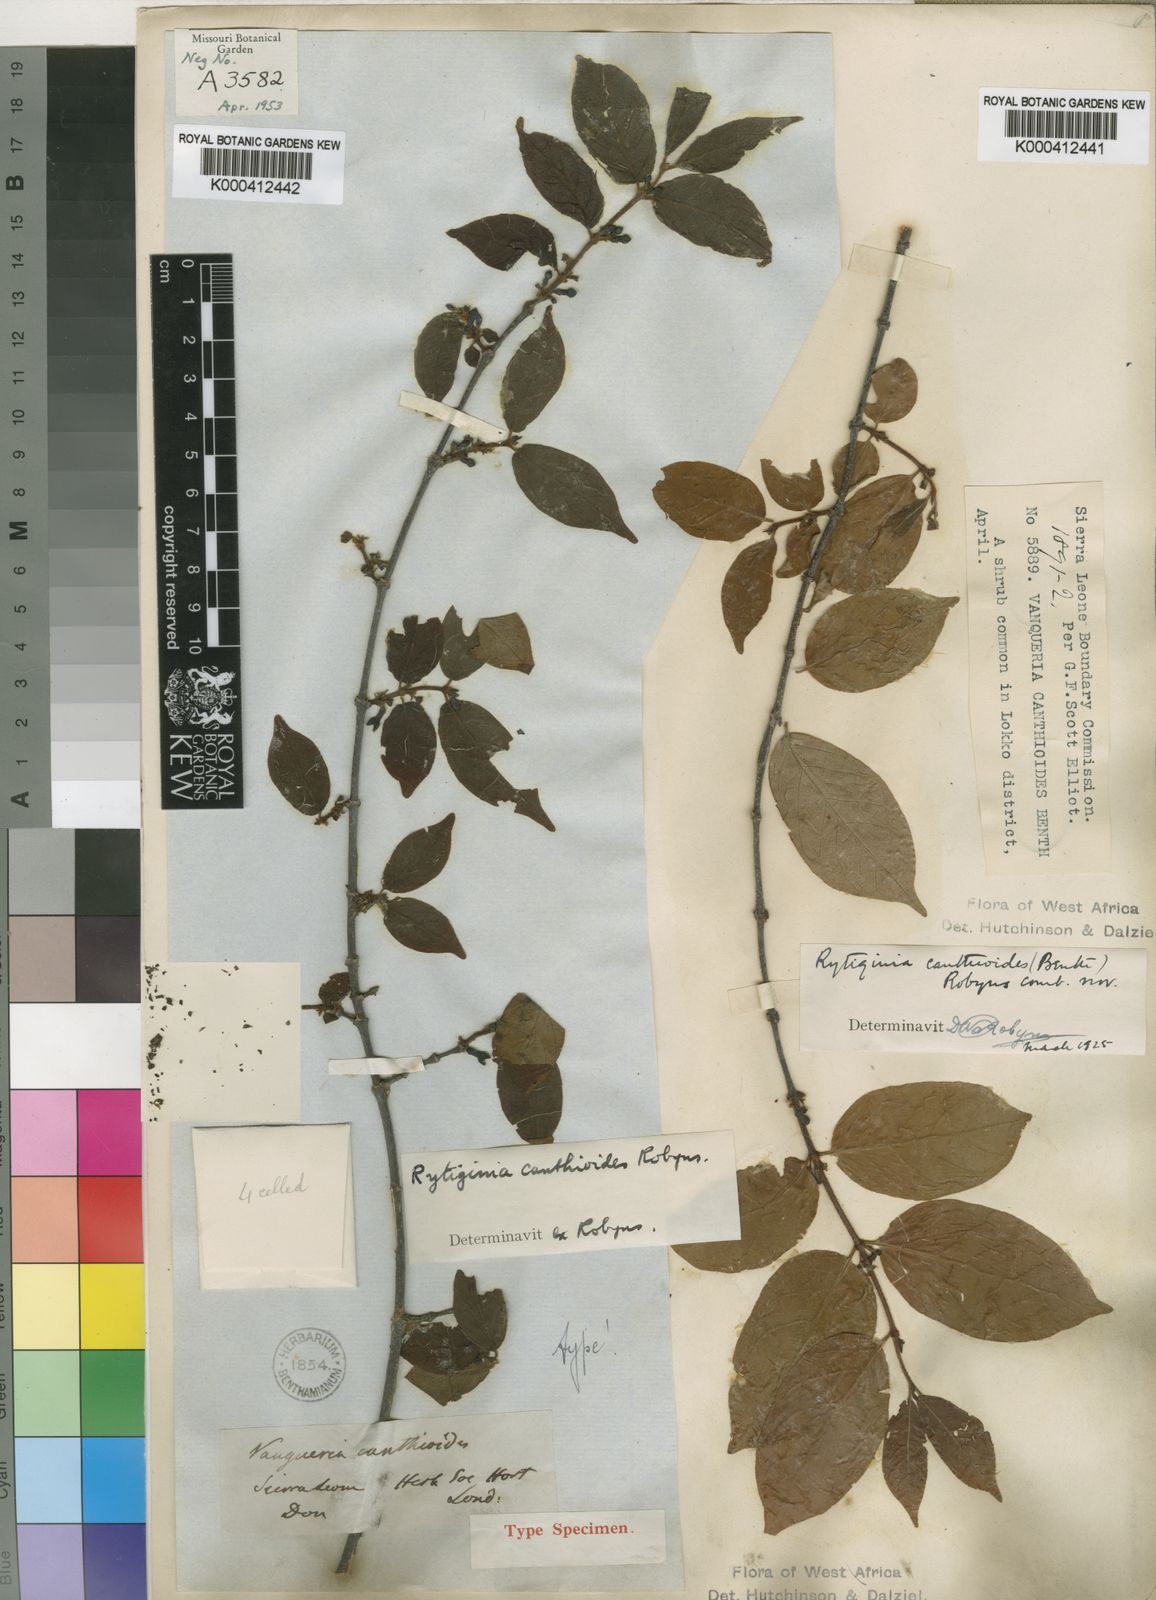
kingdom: Plantae
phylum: Tracheophyta
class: Magnoliopsida
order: Gentianales
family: Rubiaceae
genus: Rytigynia
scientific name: Rytigynia canthioides
